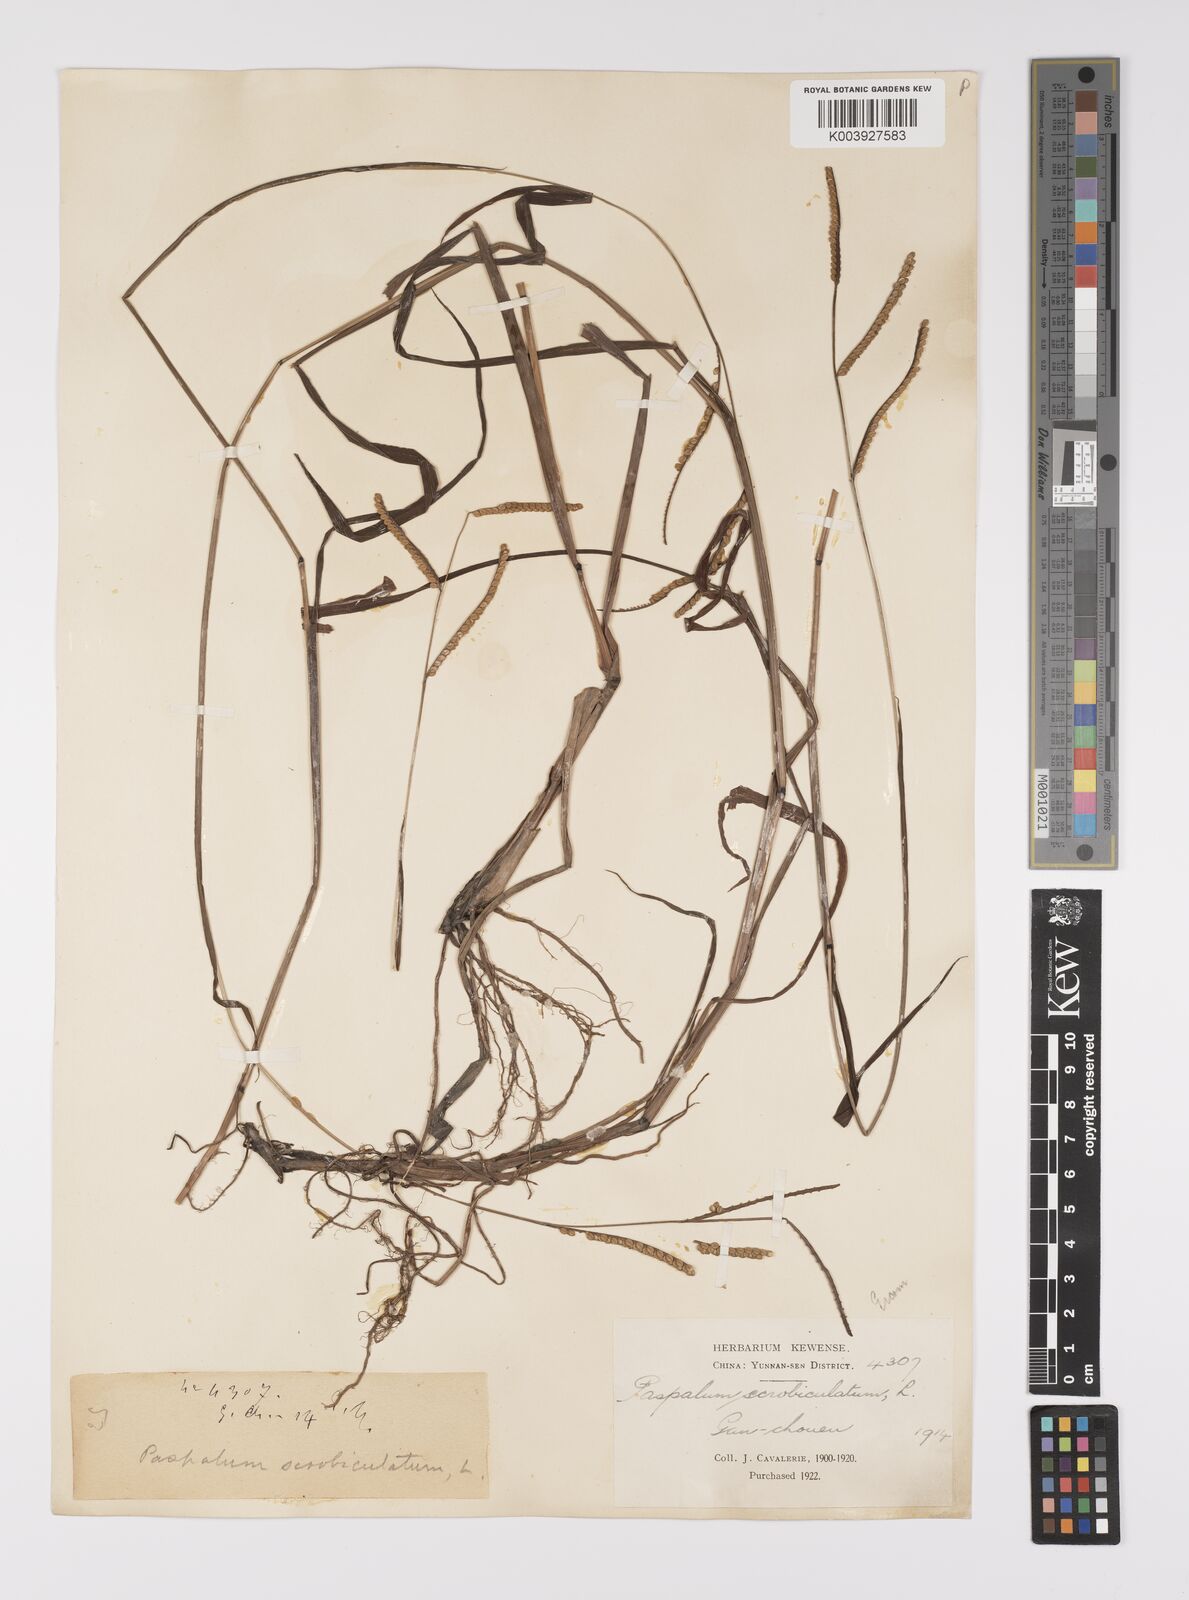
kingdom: Plantae
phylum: Tracheophyta
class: Liliopsida
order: Poales
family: Poaceae
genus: Paspalum
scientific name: Paspalum thunbergii
